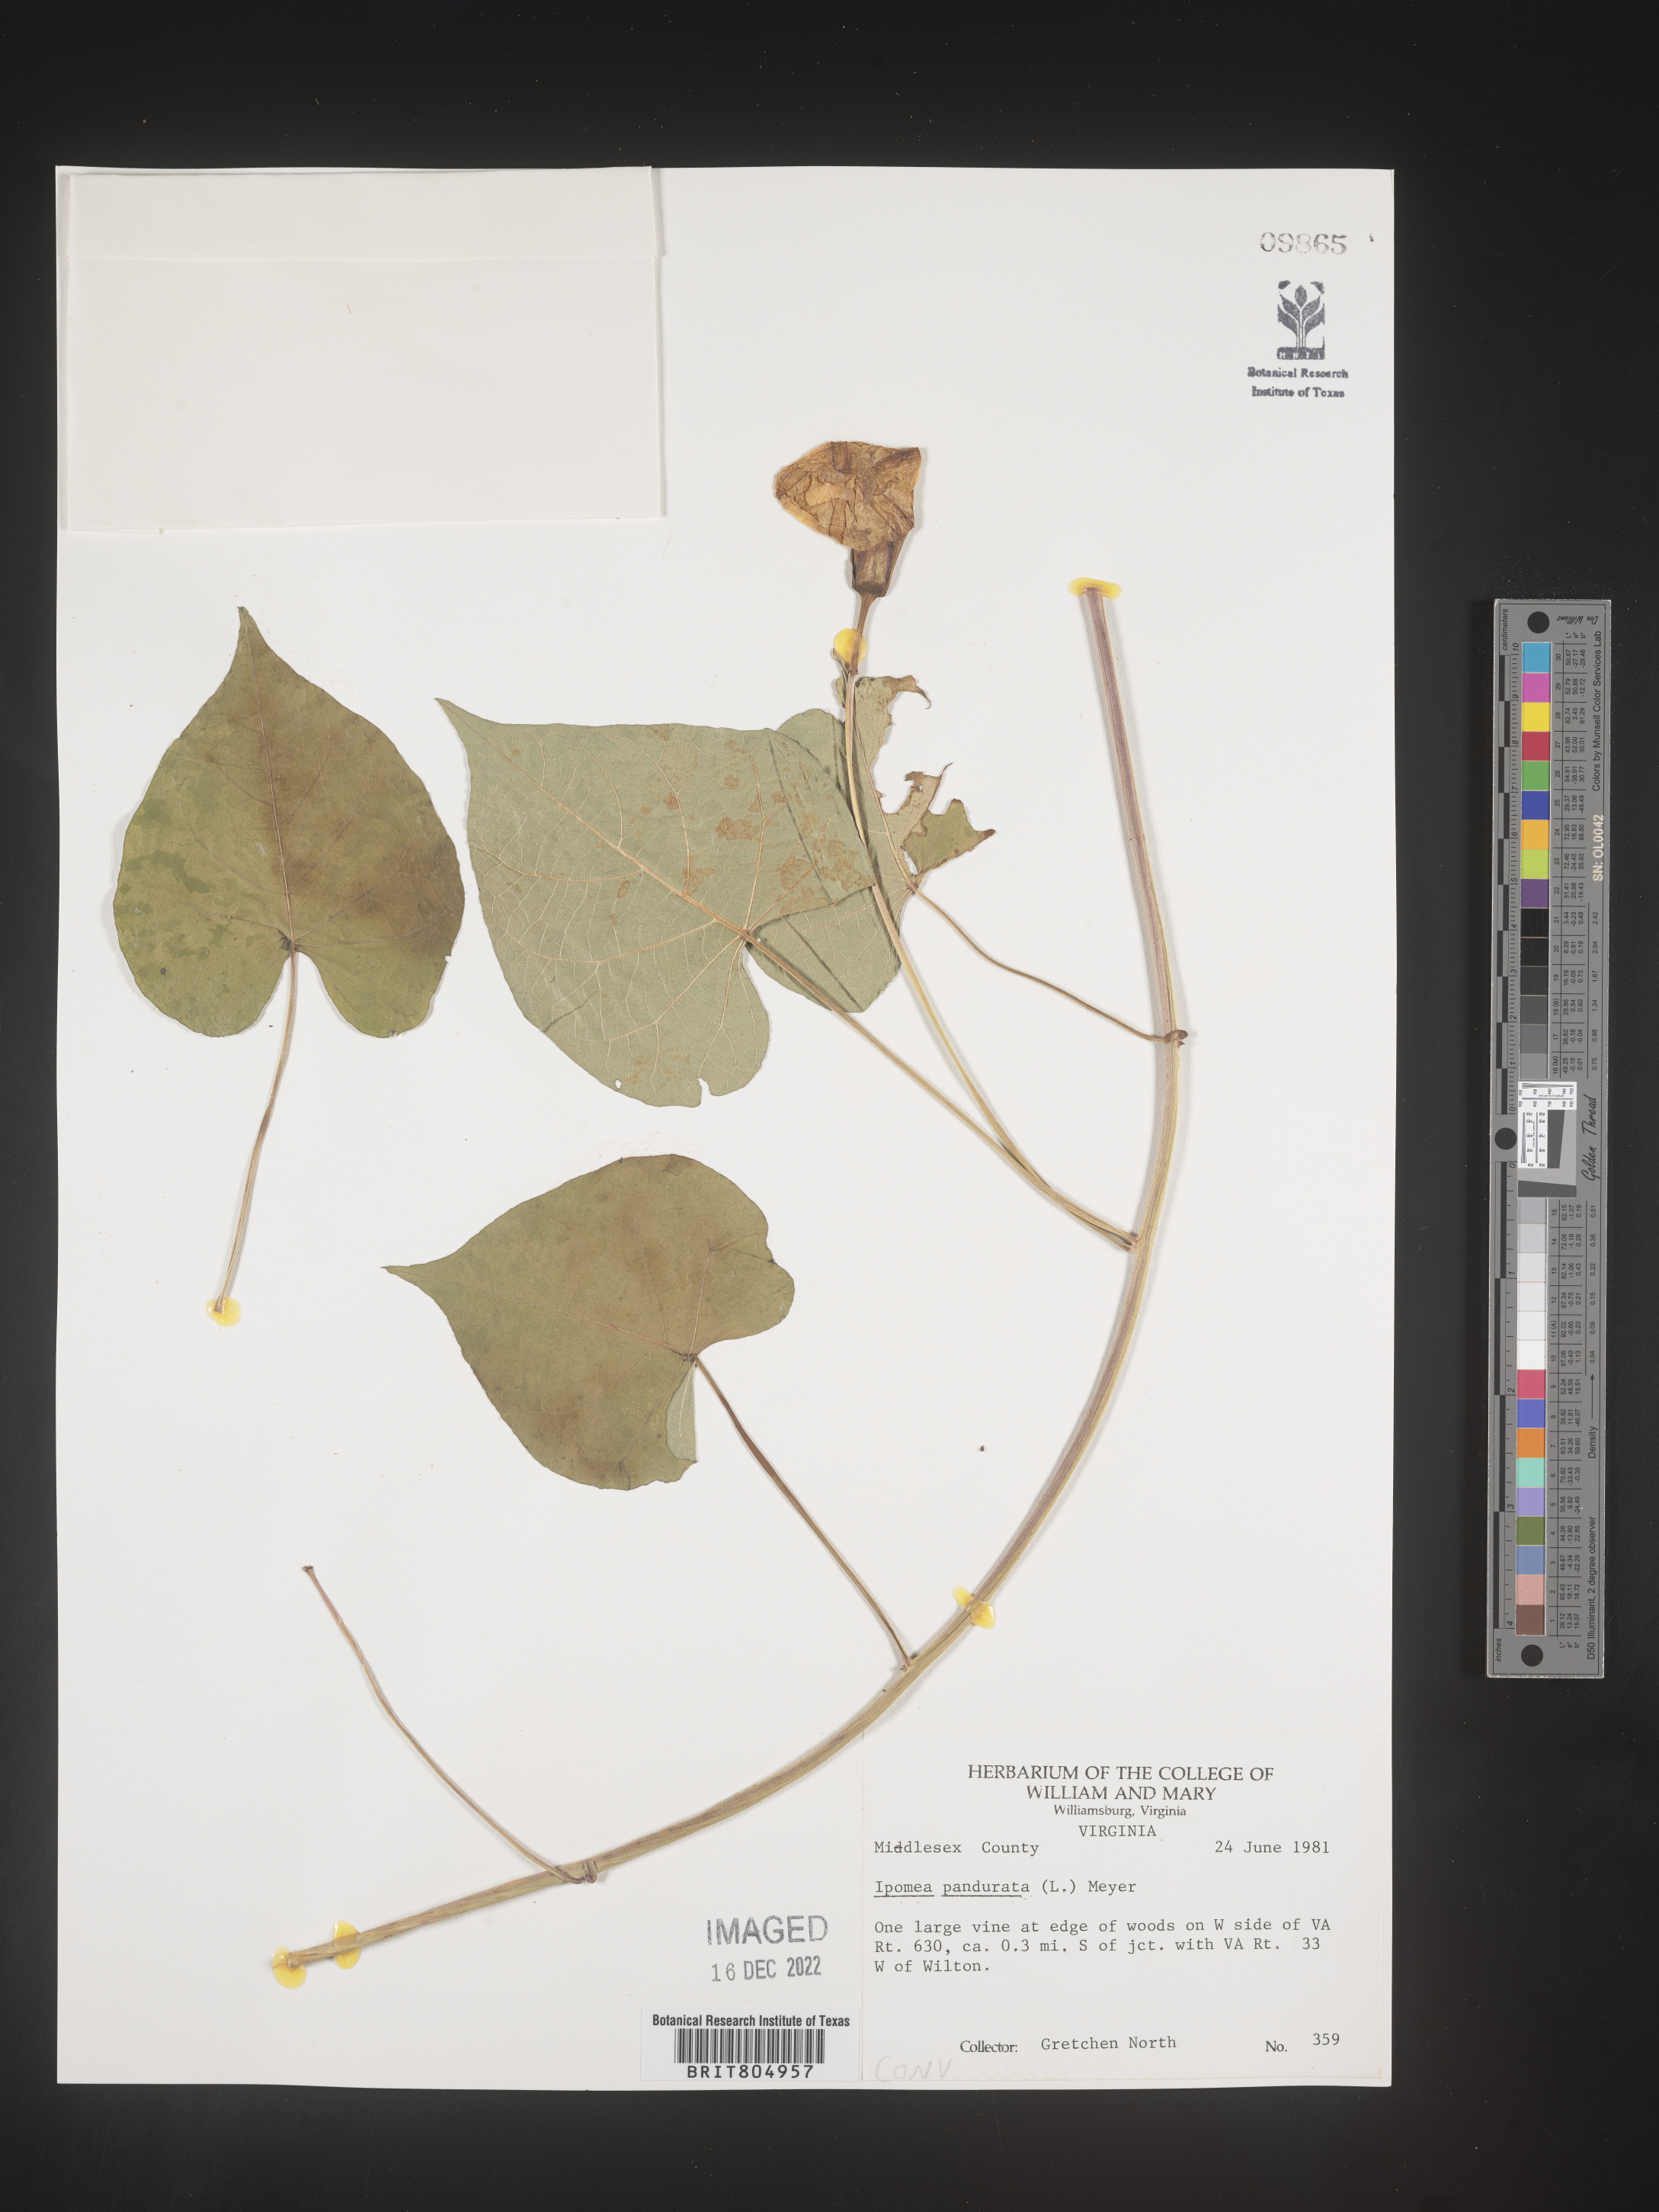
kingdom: Plantae
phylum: Tracheophyta
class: Magnoliopsida
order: Solanales
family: Convolvulaceae
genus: Ipomoea
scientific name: Ipomoea pandurata
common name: Man-of-the-earth
